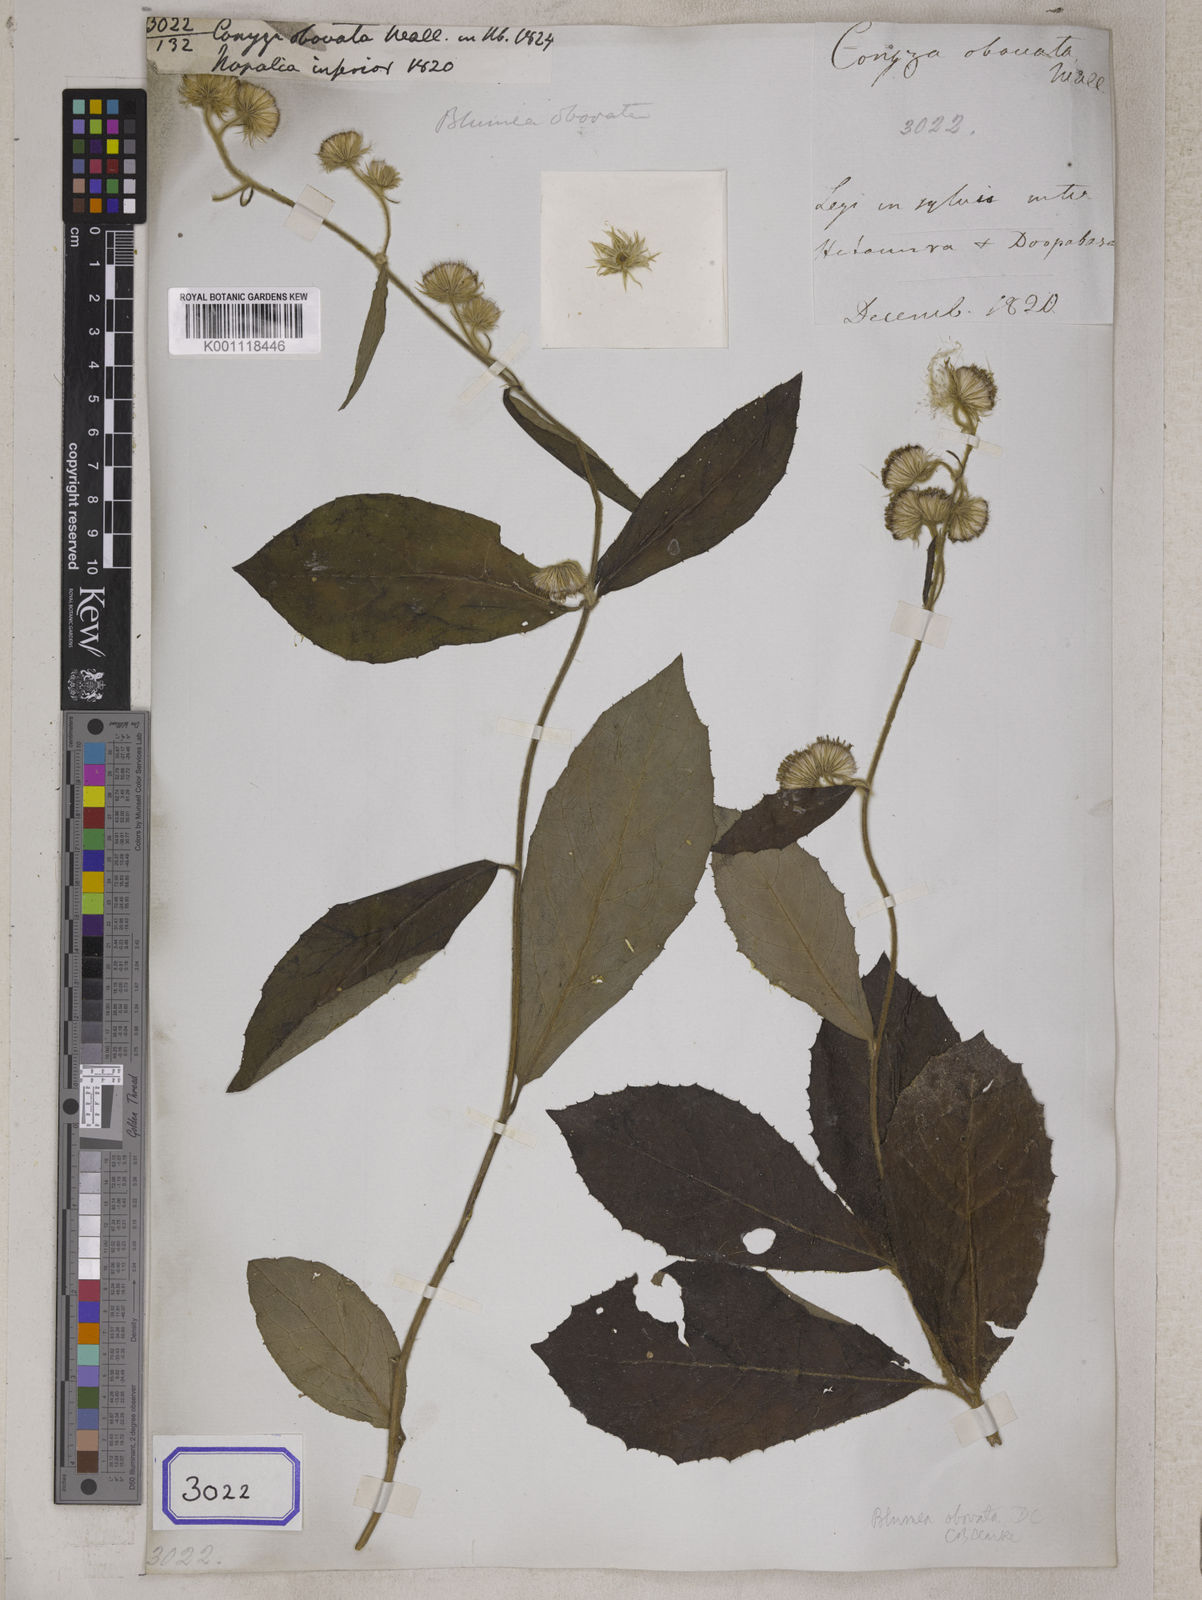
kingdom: Plantae
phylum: Tracheophyta
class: Magnoliopsida
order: Asterales
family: Asteraceae
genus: Blumea
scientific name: Blumea obovata
